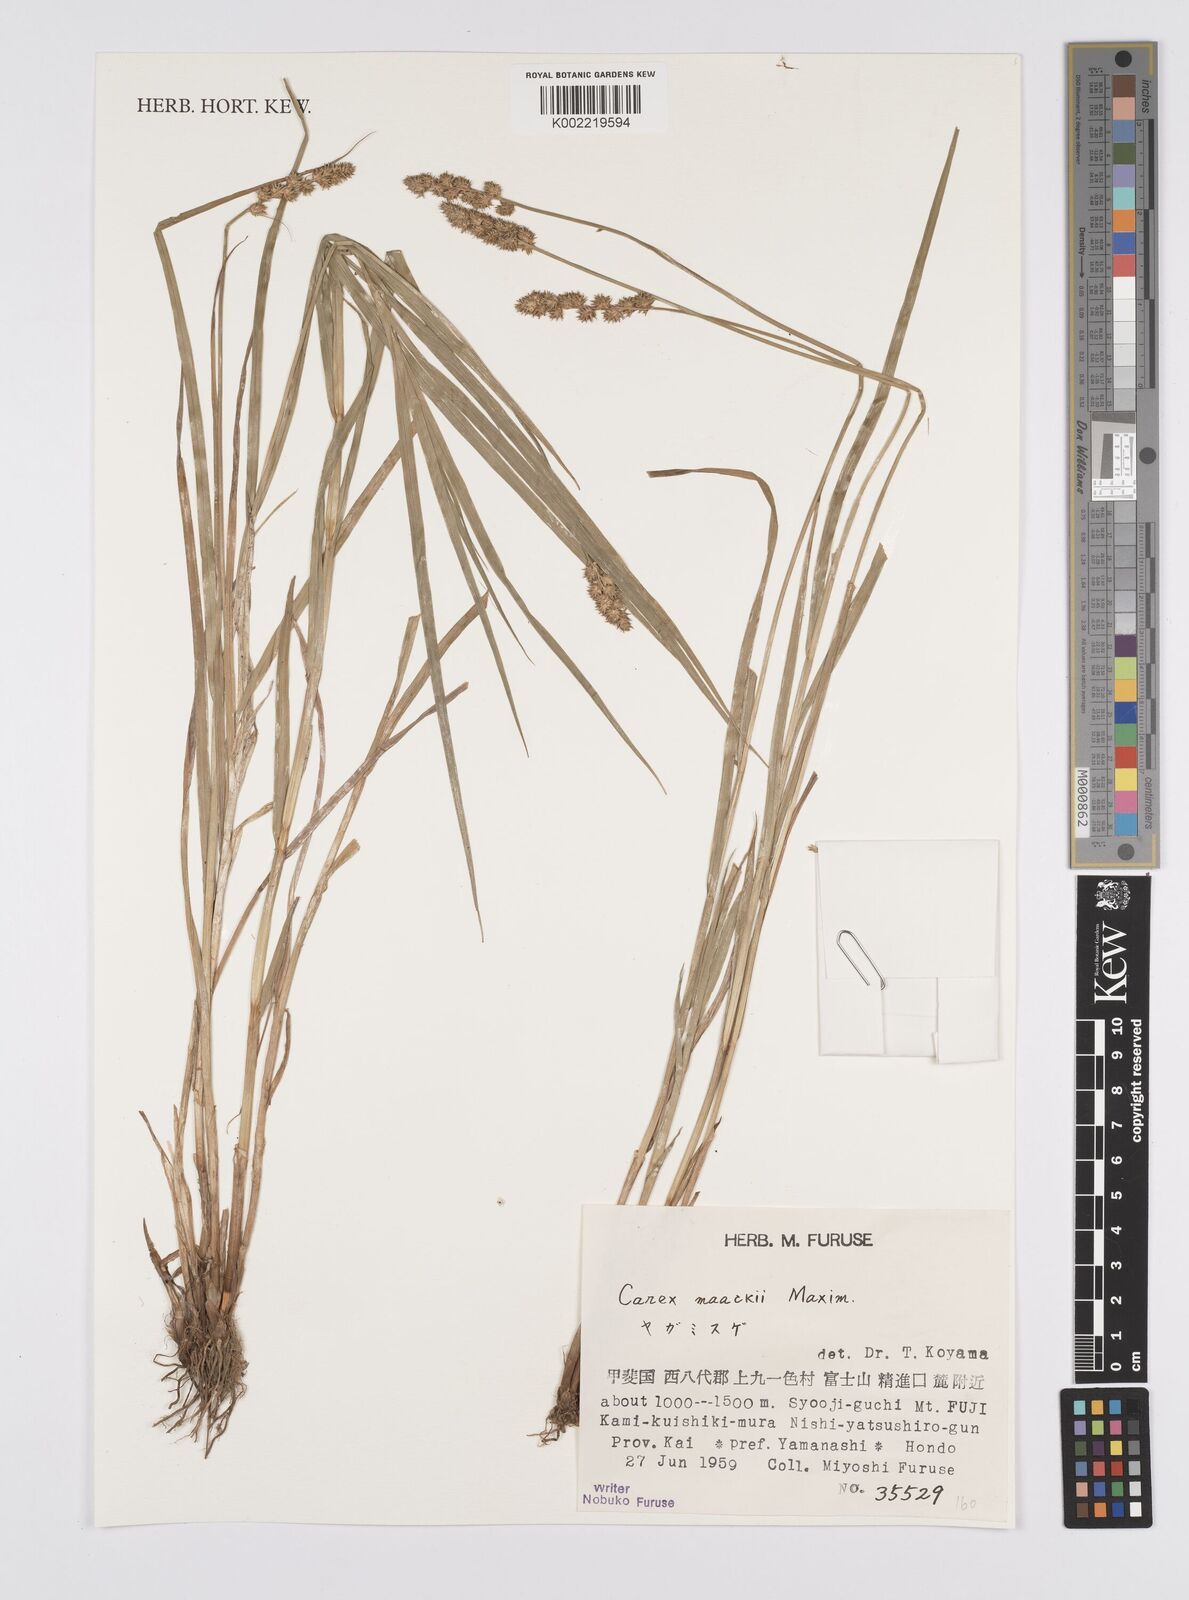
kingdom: Plantae
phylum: Tracheophyta
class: Liliopsida
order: Poales
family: Cyperaceae
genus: Carex
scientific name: Carex maackii
